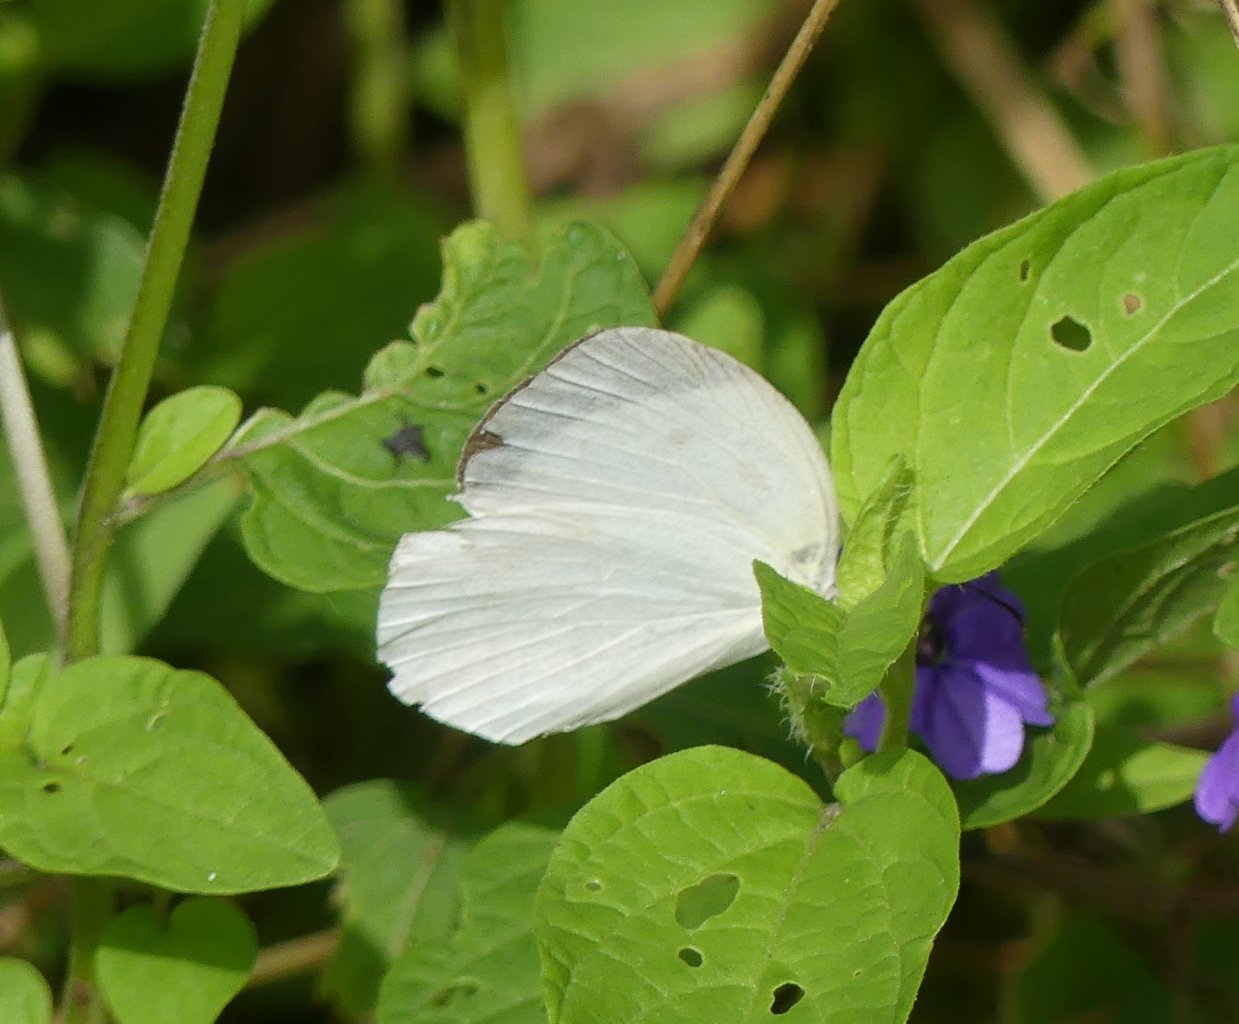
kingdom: Animalia
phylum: Arthropoda
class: Insecta
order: Lepidoptera
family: Pieridae
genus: Eurema
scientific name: Eurema albula
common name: White Yellow
